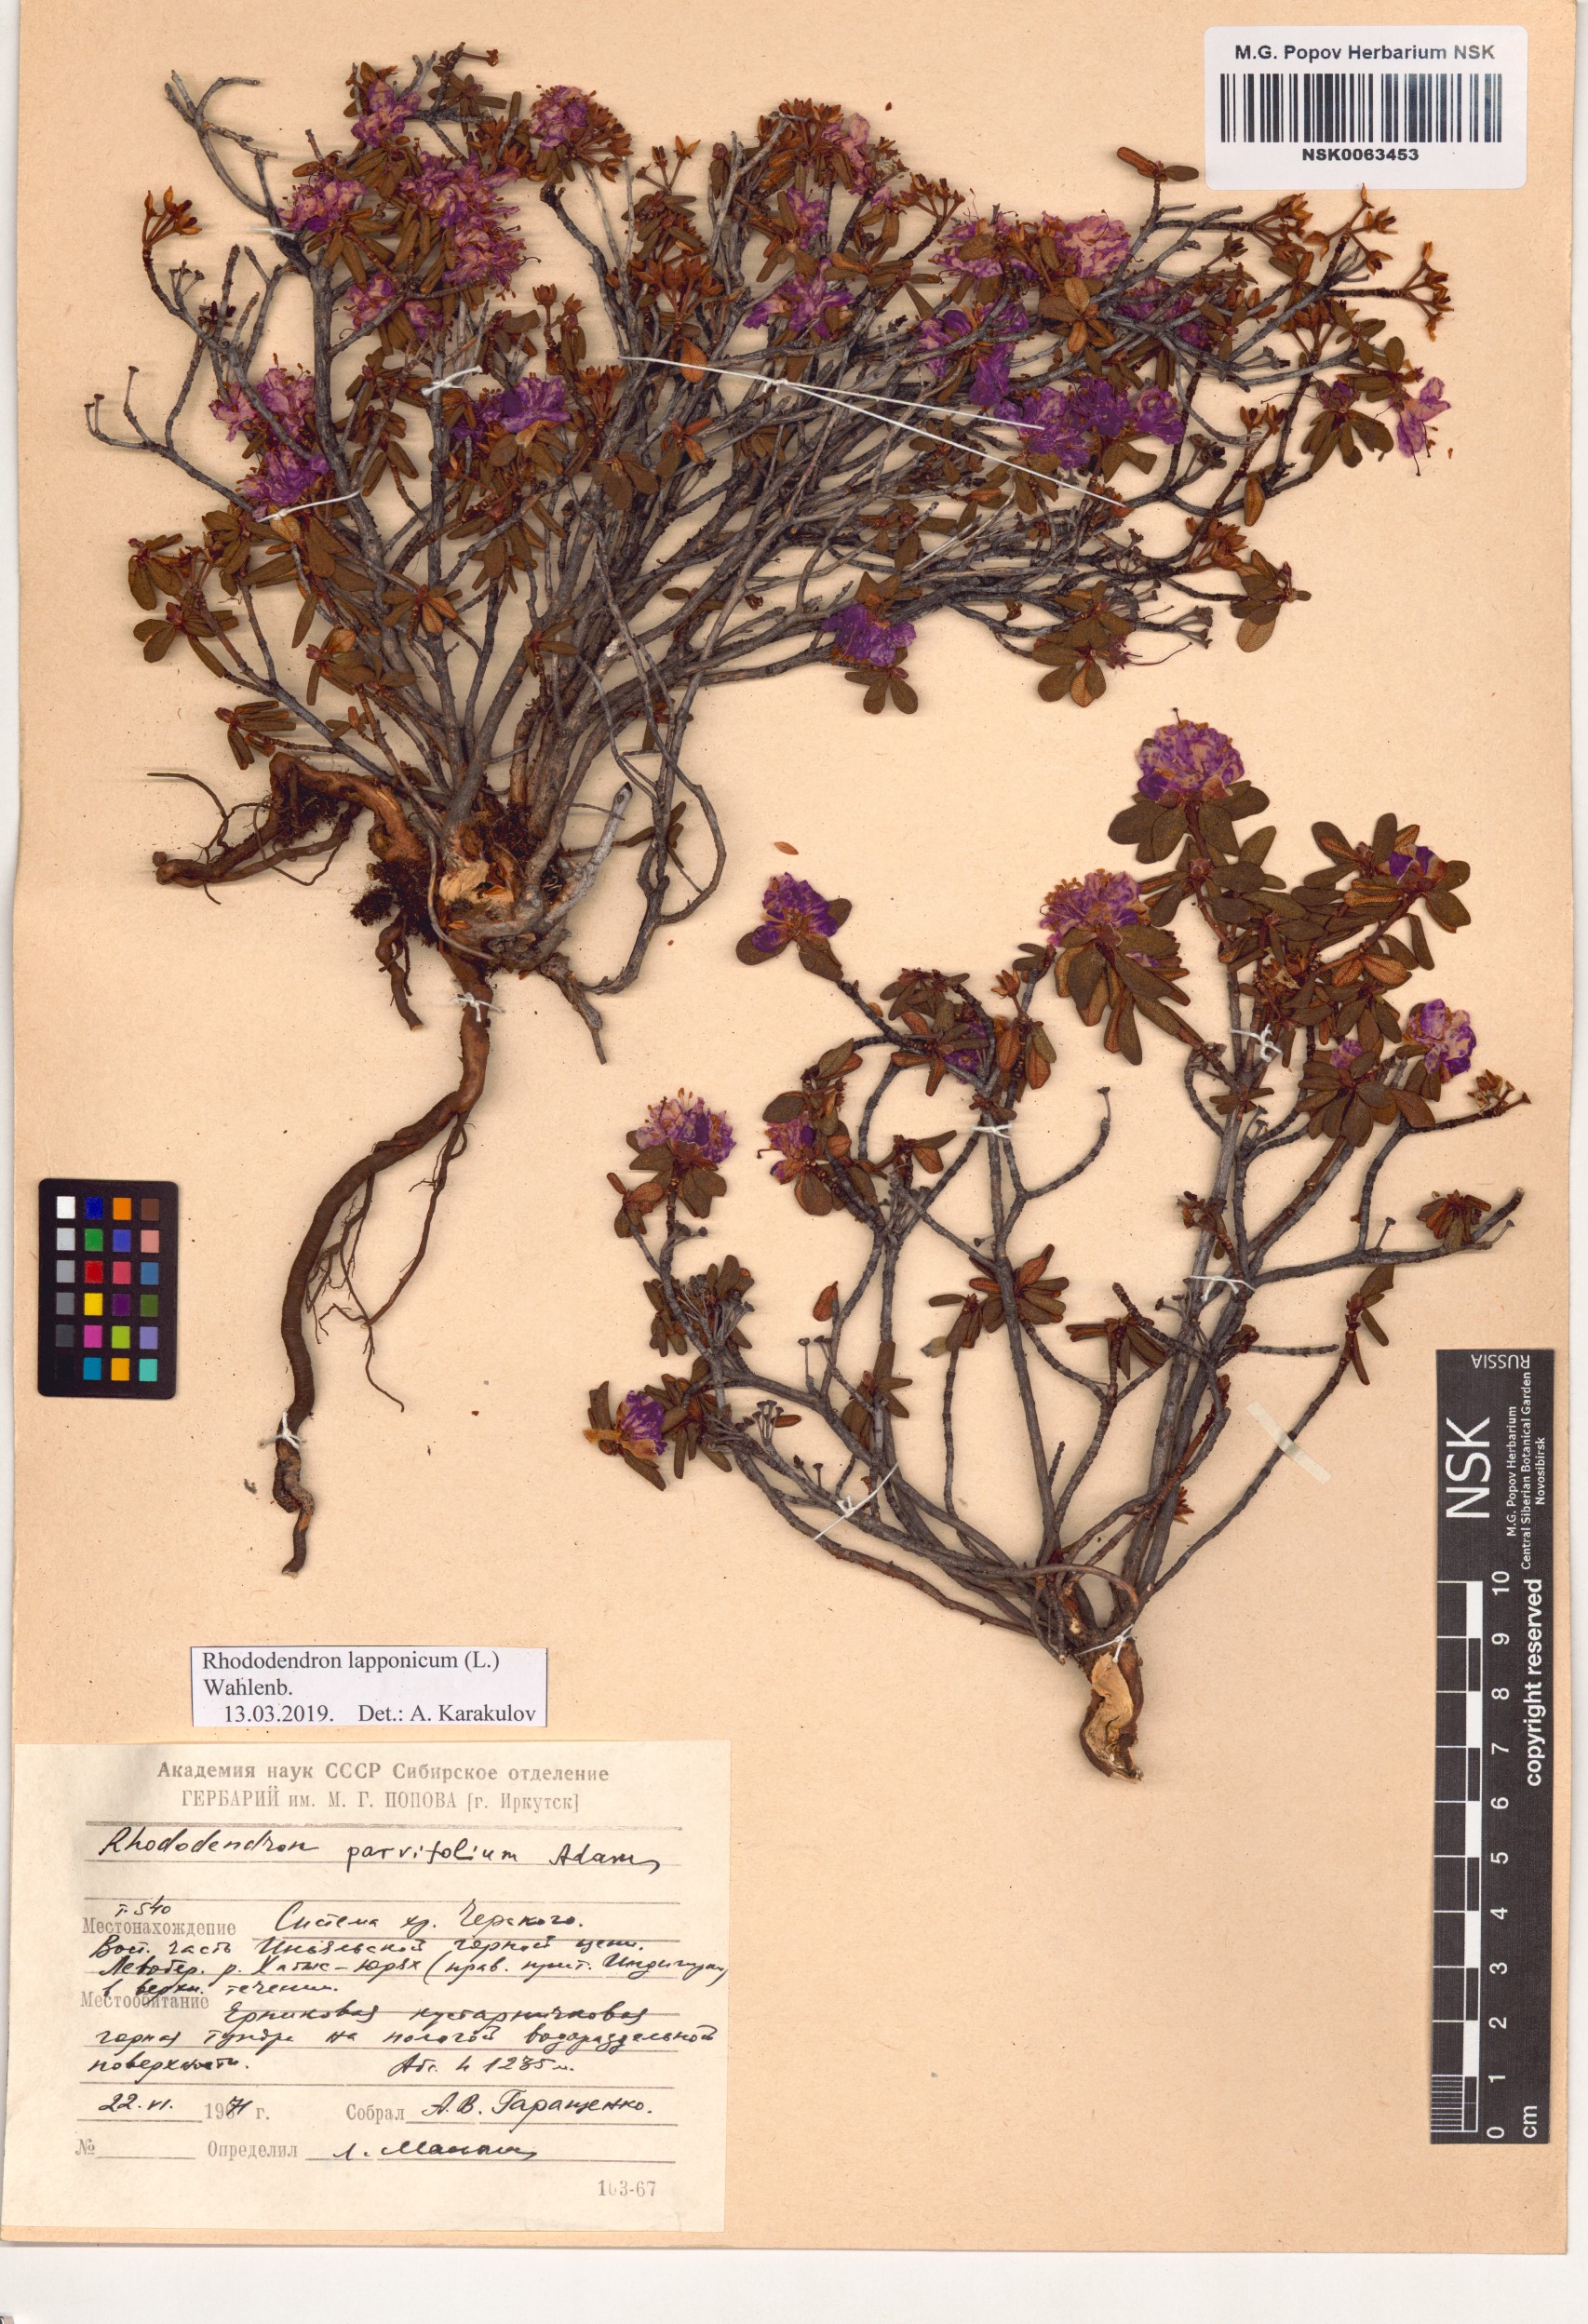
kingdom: Plantae
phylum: Tracheophyta
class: Magnoliopsida
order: Ericales
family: Ericaceae
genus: Rhododendron
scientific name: Rhododendron lapponicum
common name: Lapland rhododendron
